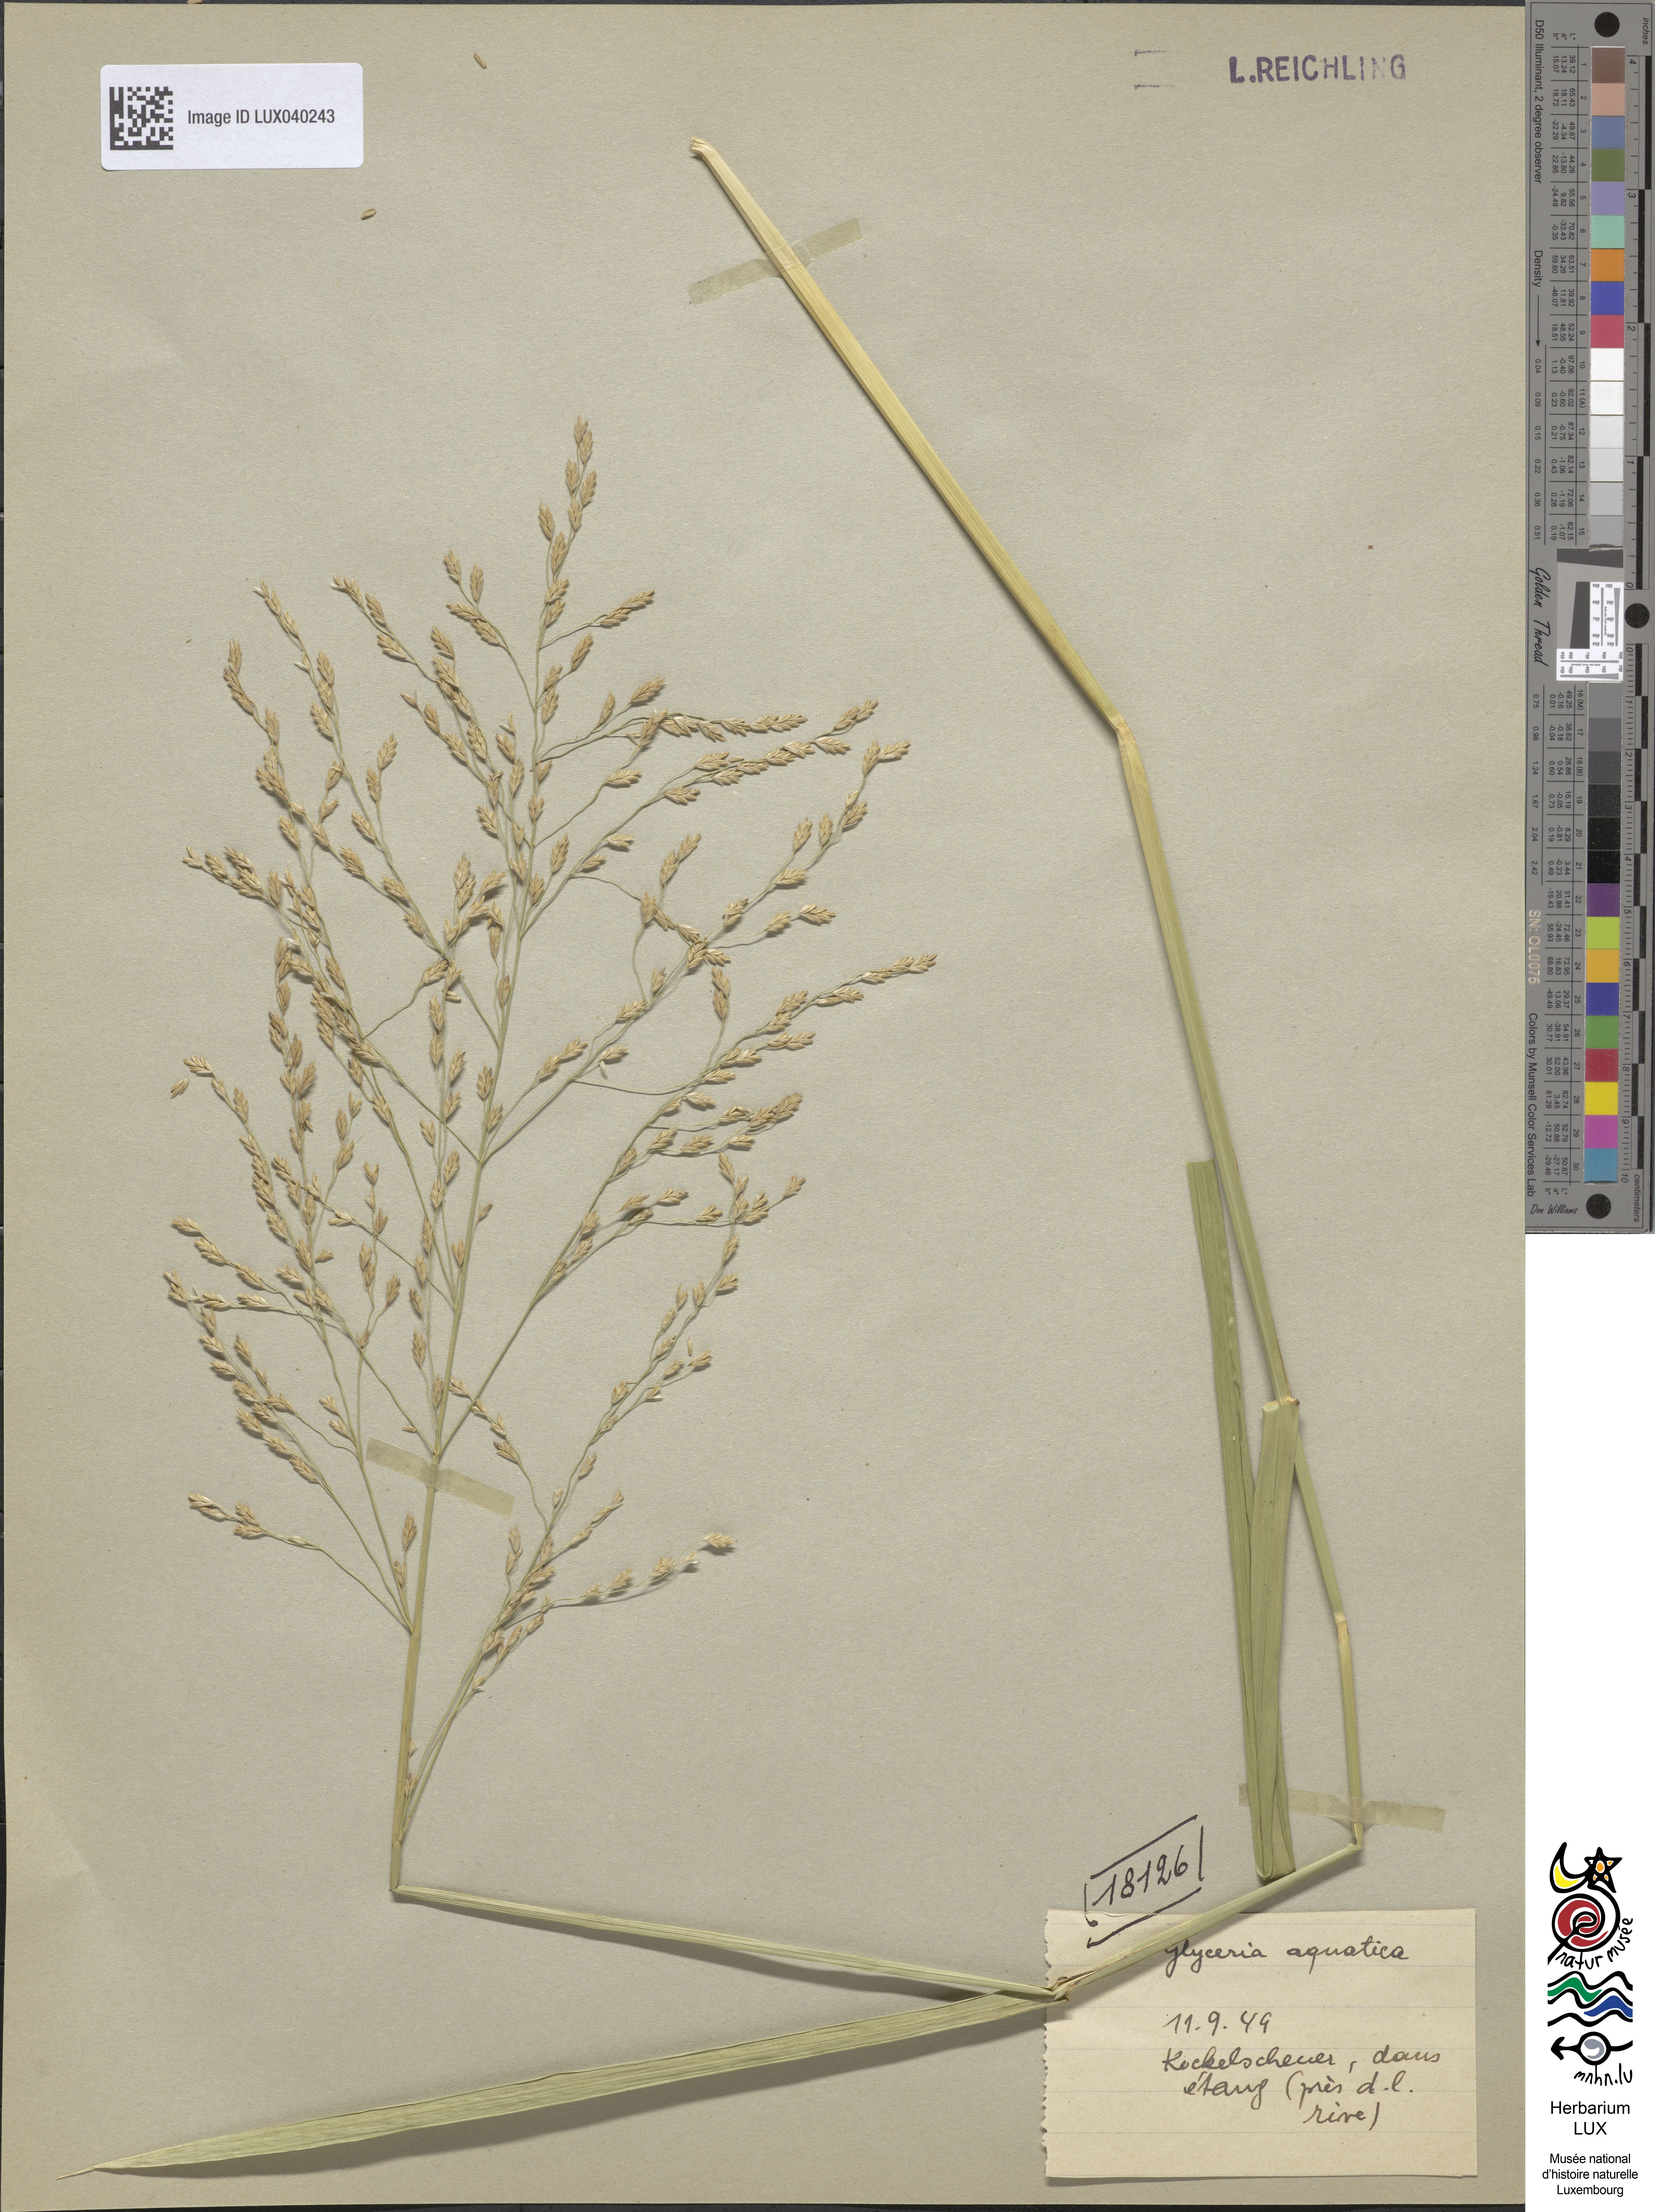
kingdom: Plantae
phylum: Tracheophyta
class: Liliopsida
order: Poales
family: Poaceae
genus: Glyceria
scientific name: Glyceria maxima
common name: Reed mannagrass
